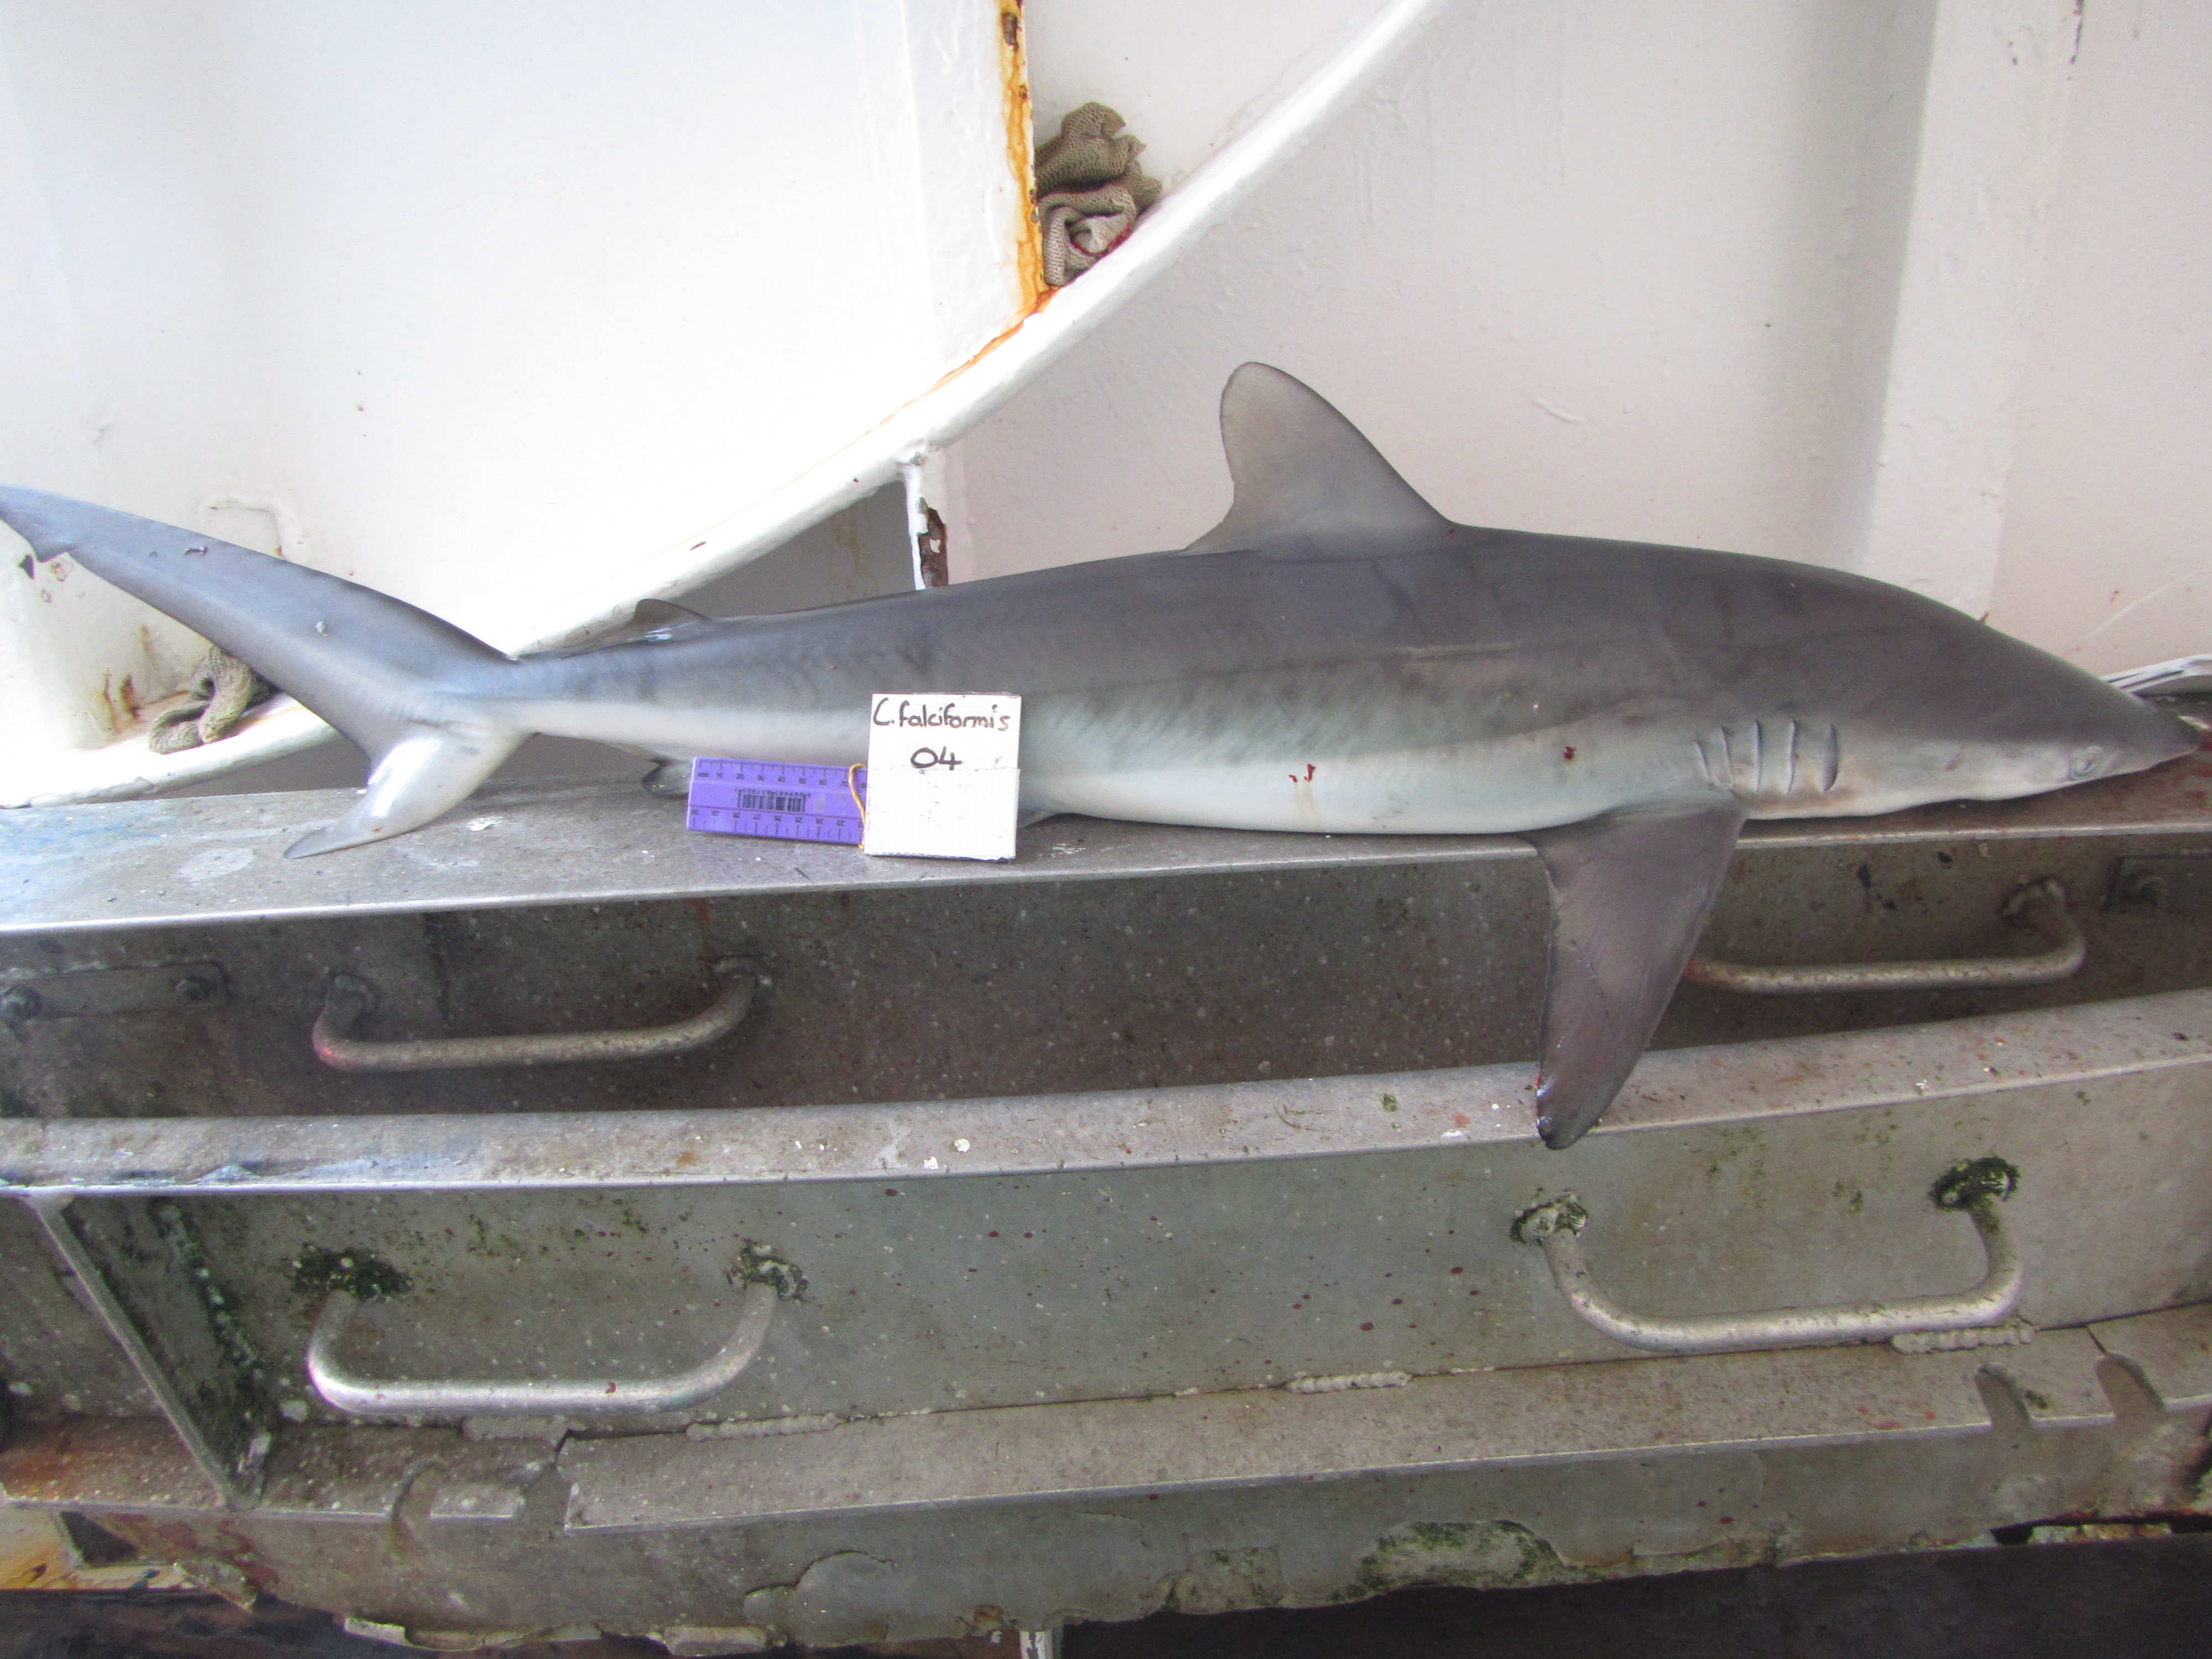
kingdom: Animalia
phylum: Chordata
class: Elasmobranchii
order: Carcharhiniformes
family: Carcharhinidae
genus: Carcharhinus
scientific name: Carcharhinus falciformis
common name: Silky shark
